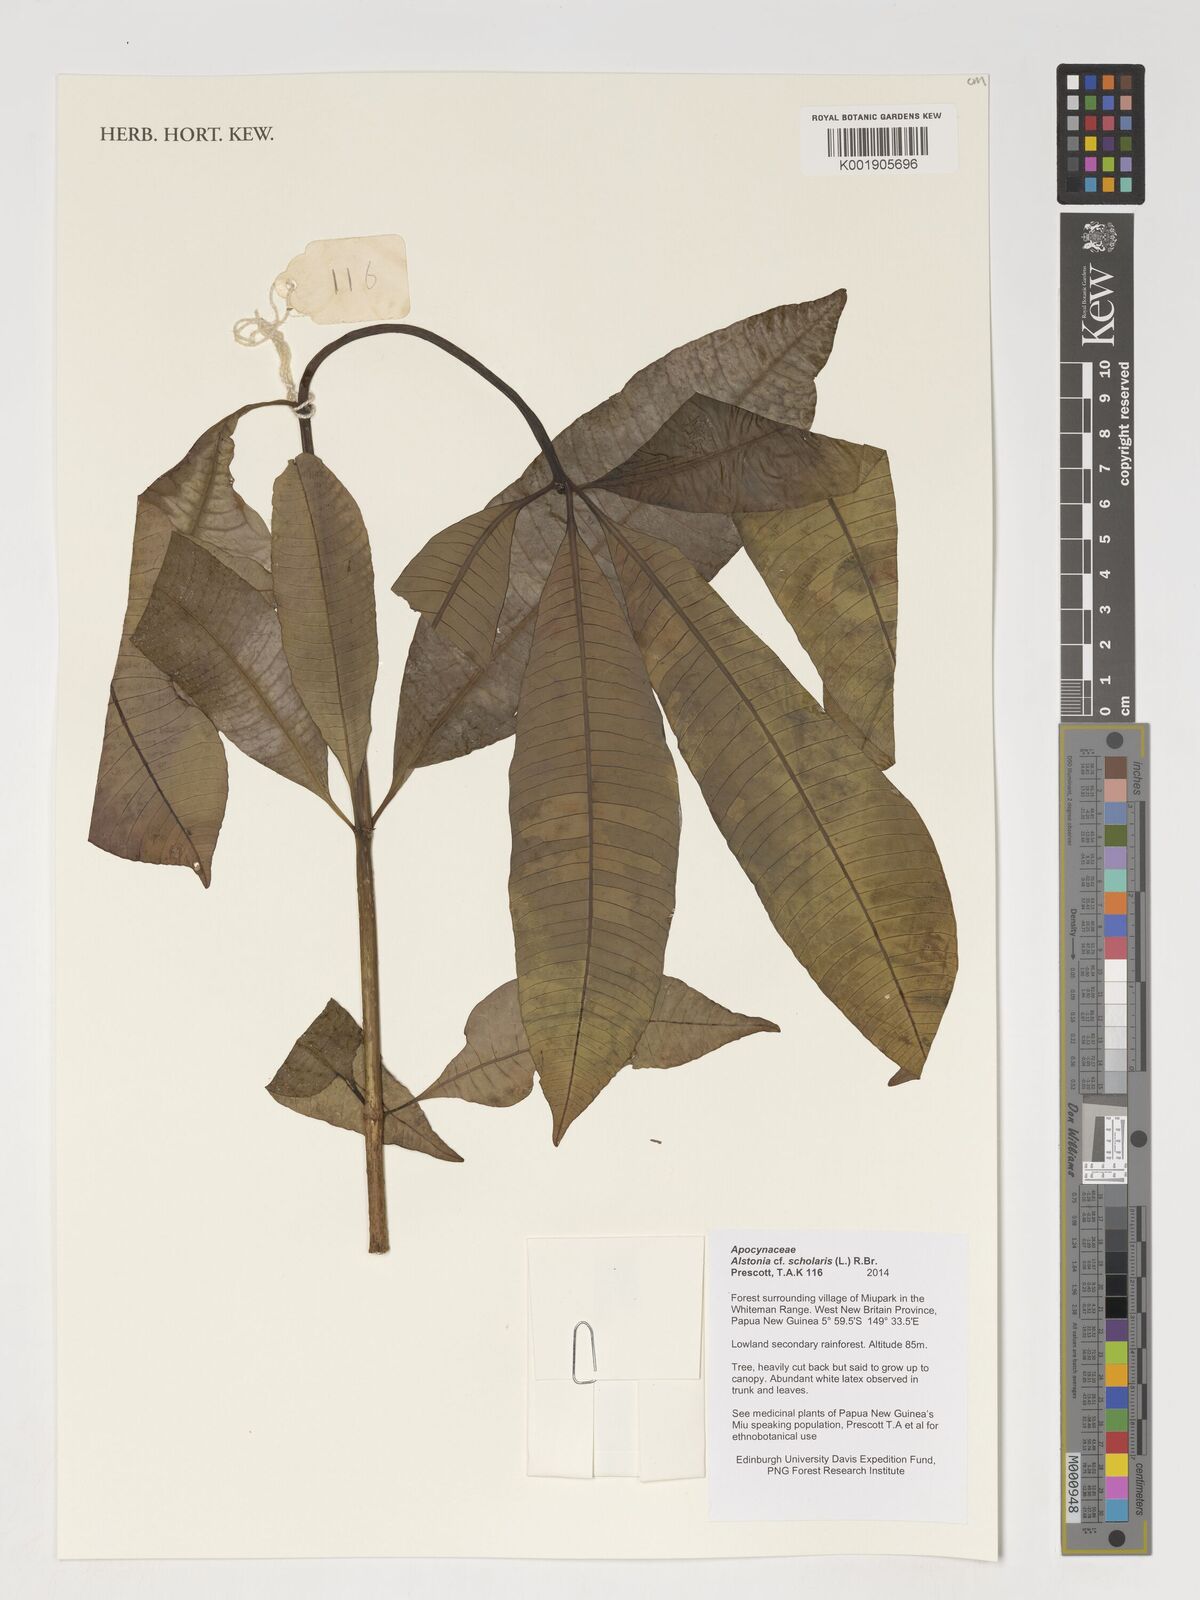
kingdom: Plantae
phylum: Tracheophyta
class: Magnoliopsida
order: Gentianales
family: Apocynaceae
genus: Alstonia
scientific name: Alstonia scholaris
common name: White cheesewood
